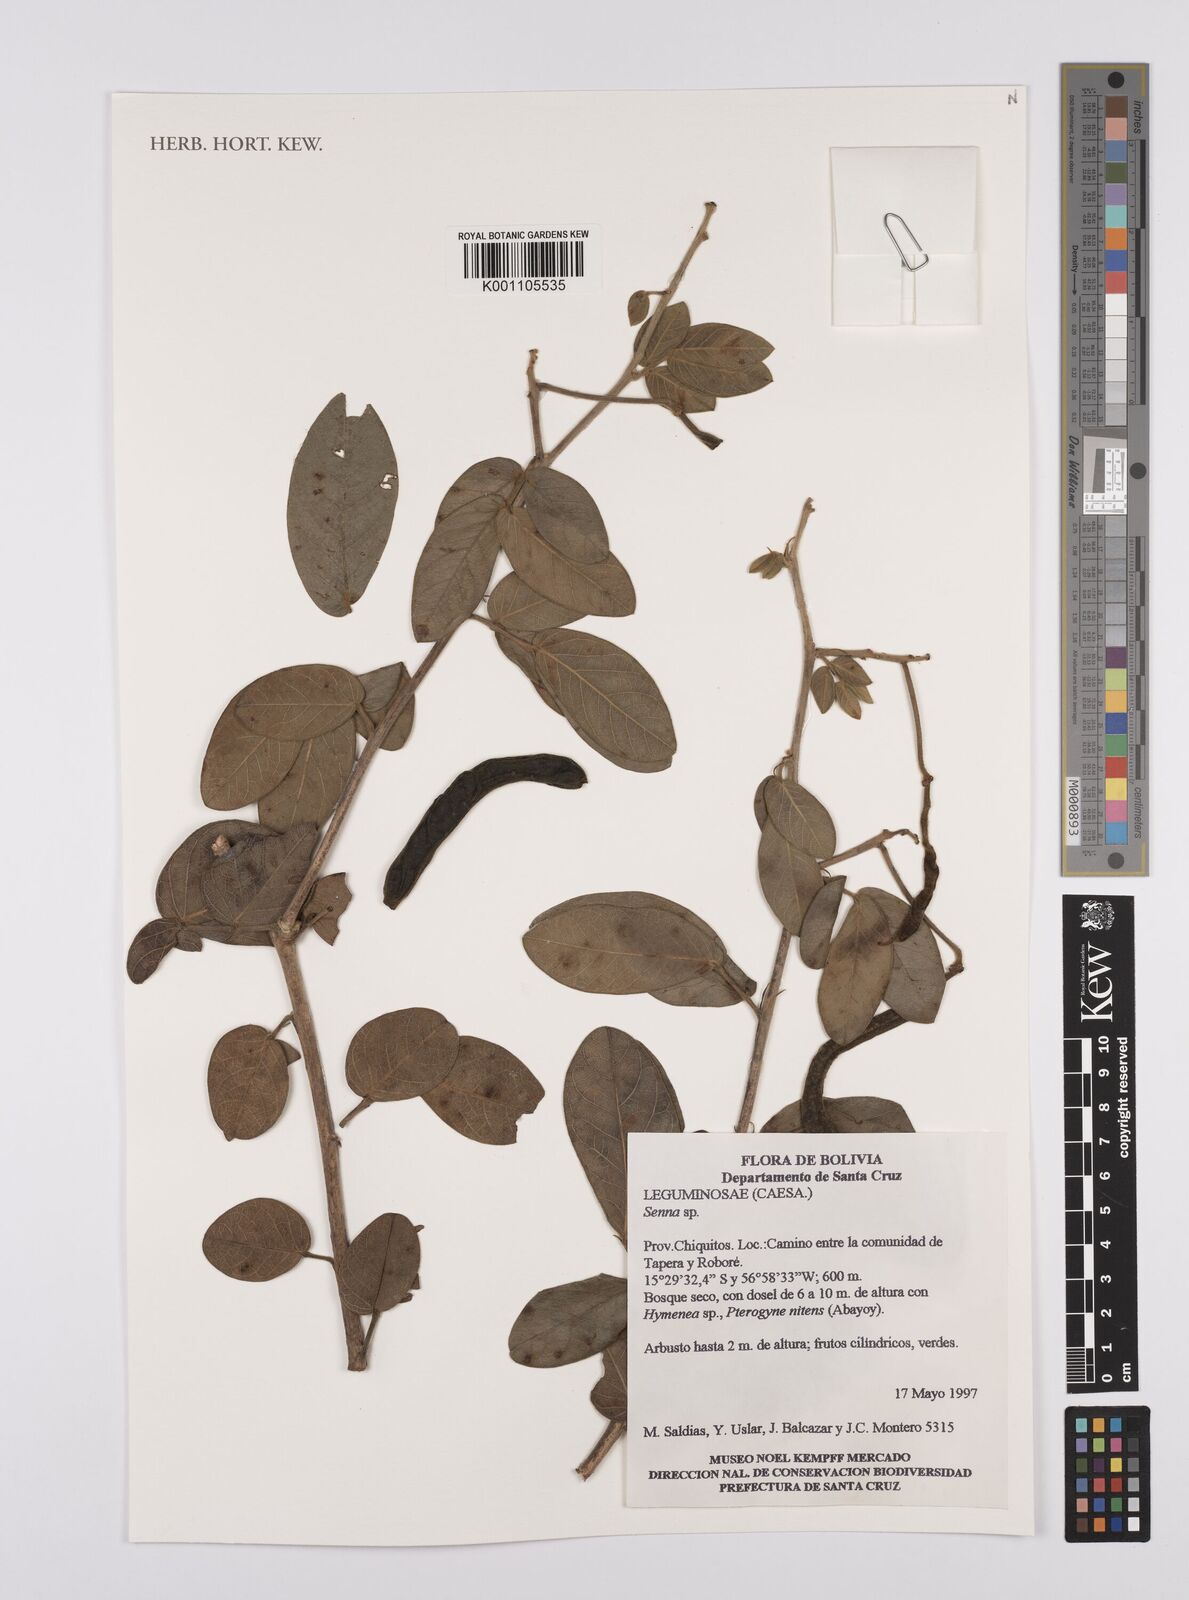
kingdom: Plantae
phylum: Tracheophyta
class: Magnoliopsida
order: Fabales
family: Fabaceae
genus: Senna
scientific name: Senna
